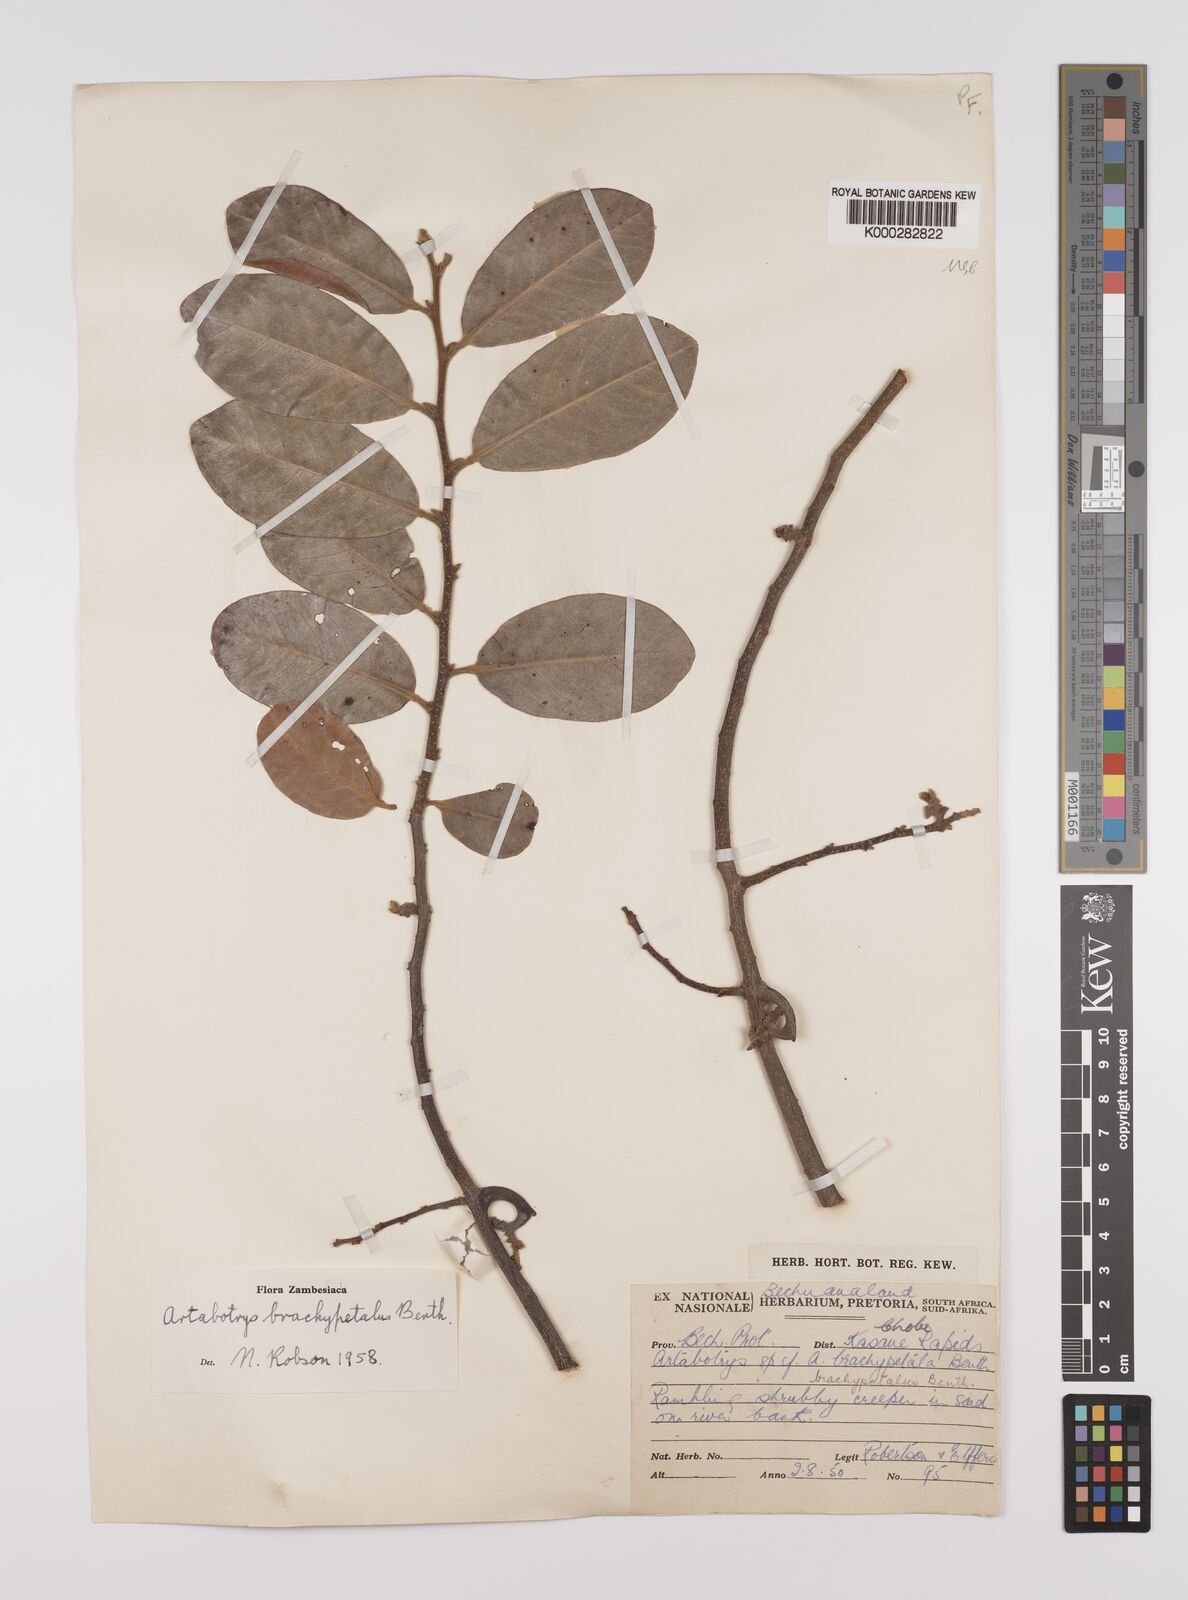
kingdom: Plantae
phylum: Tracheophyta
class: Magnoliopsida
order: Magnoliales
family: Annonaceae
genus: Artabotrys
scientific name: Artabotrys brachypetalus
